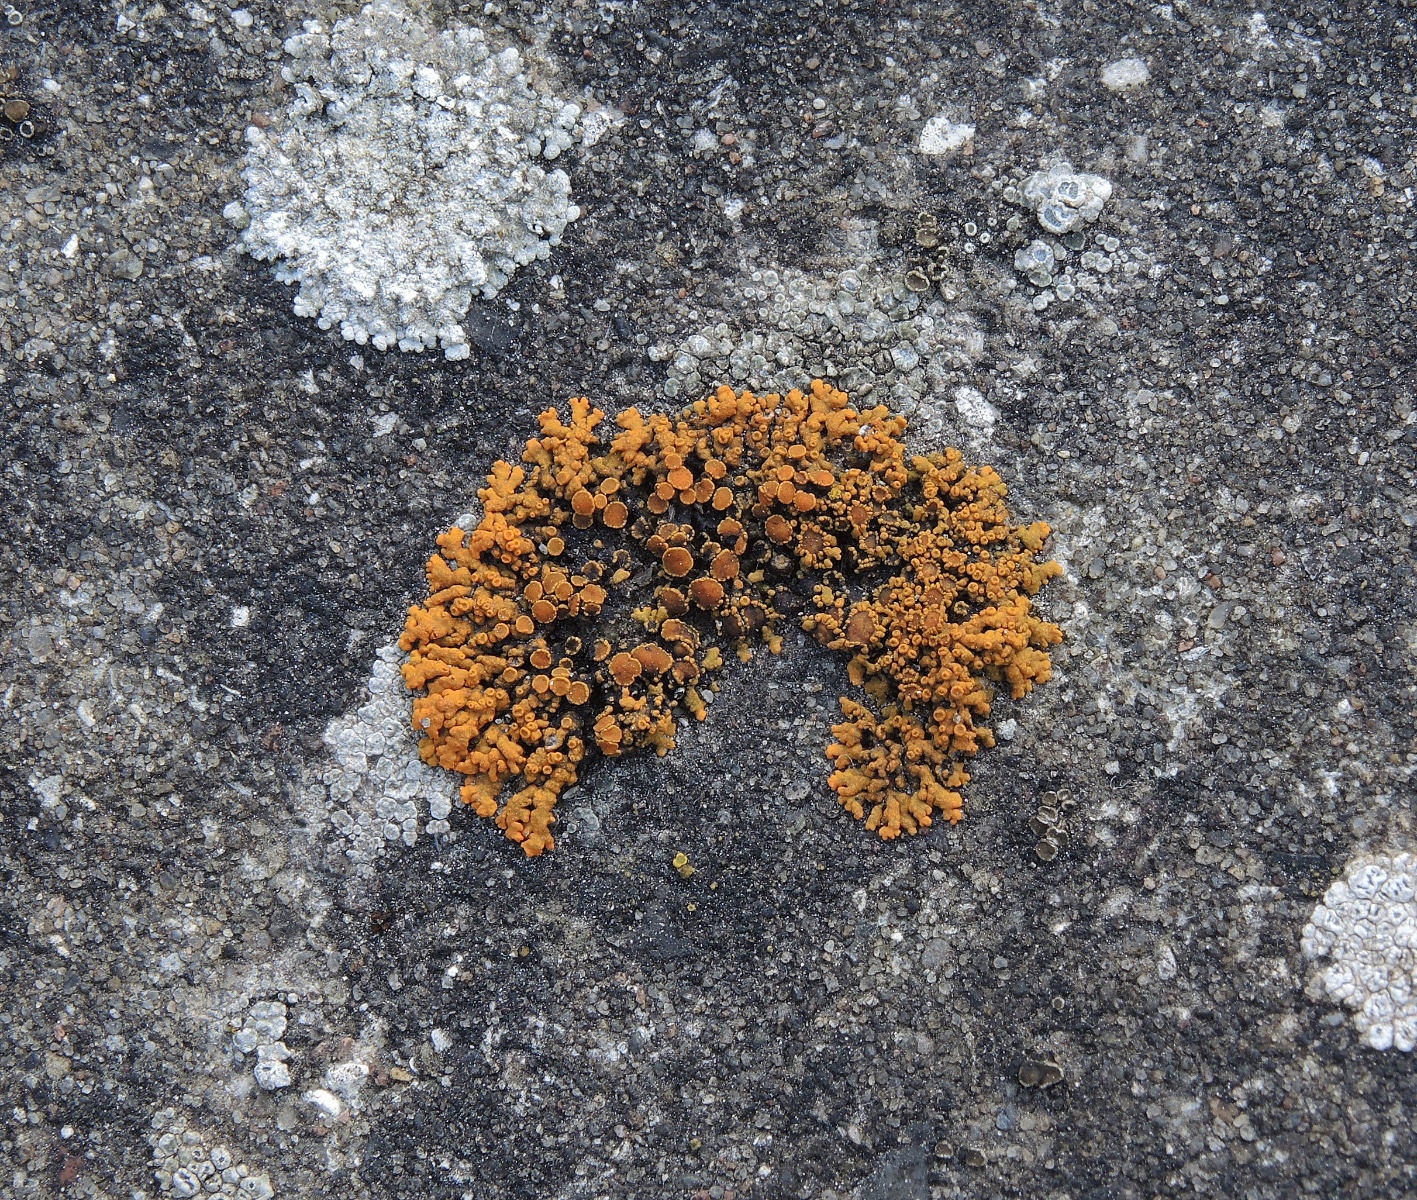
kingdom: Fungi
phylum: Ascomycota
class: Lecanoromycetes
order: Teloschistales
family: Teloschistaceae
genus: Xanthoria
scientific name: Xanthoria elegans
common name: fjeld-væggelav
